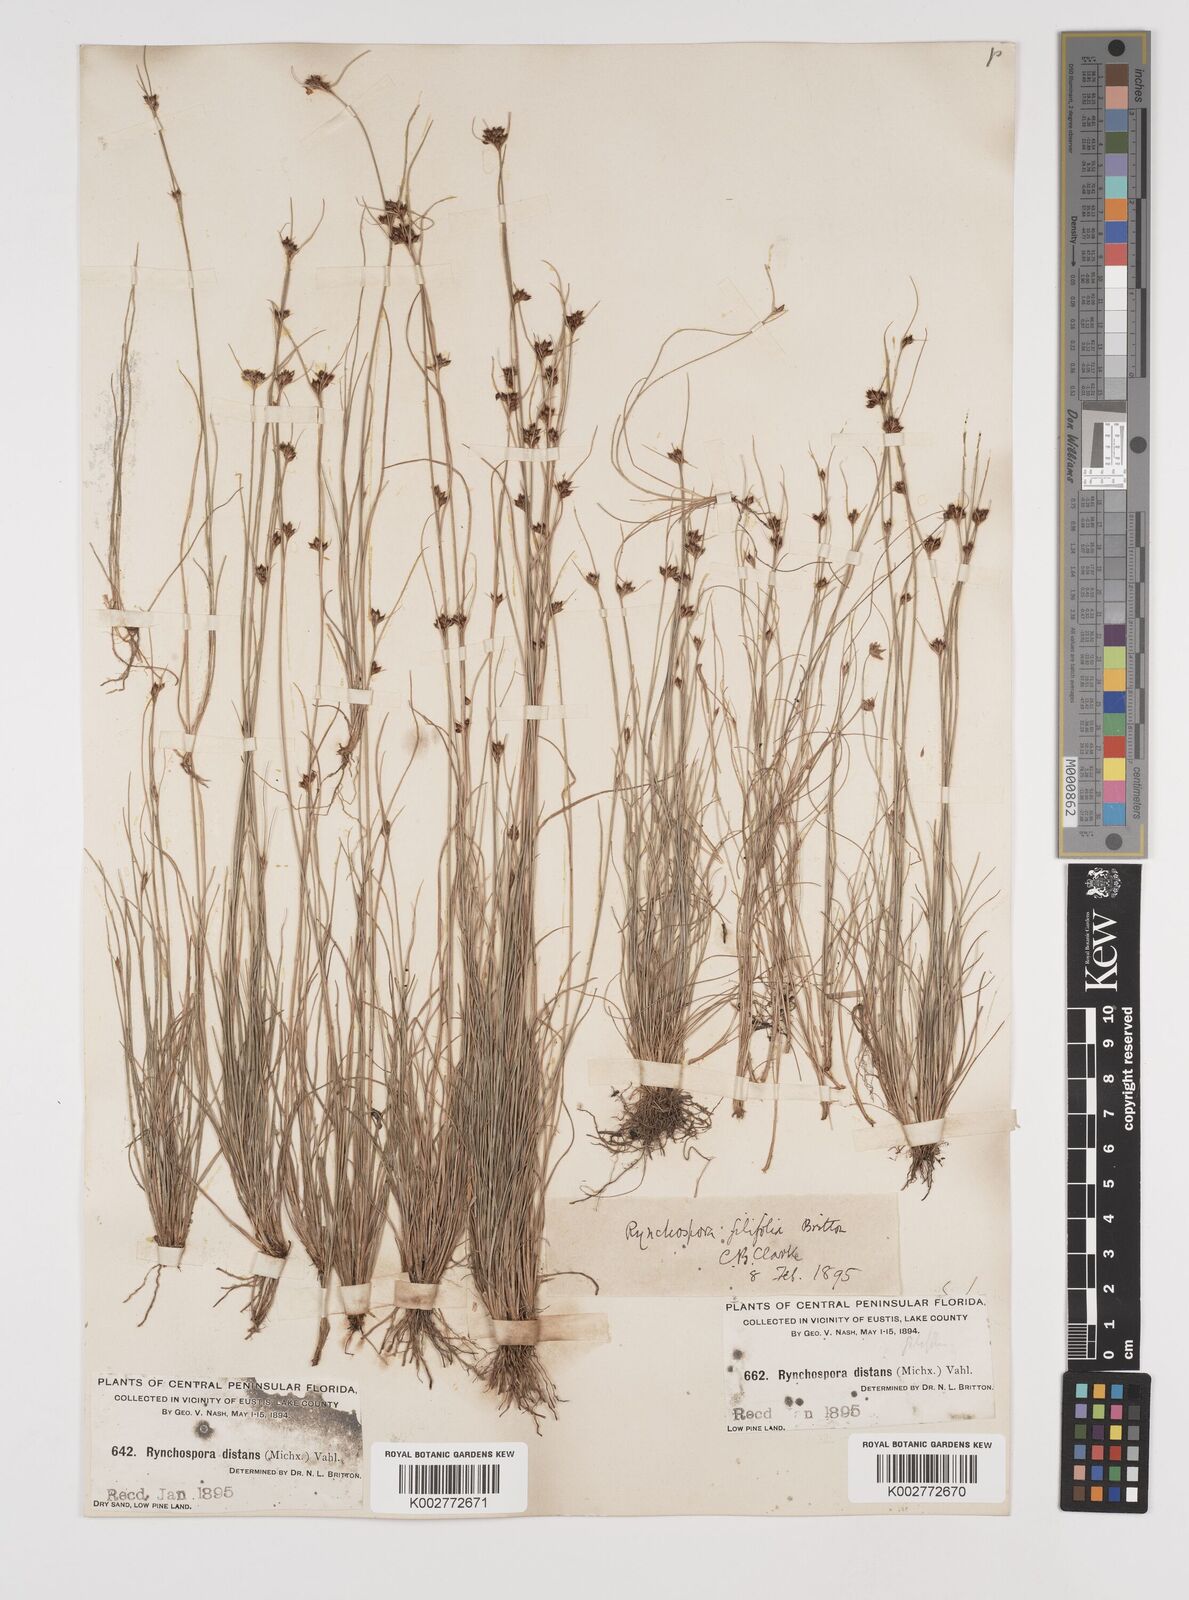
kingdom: Plantae
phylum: Tracheophyta
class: Liliopsida
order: Poales
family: Cyperaceae
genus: Rhynchospora
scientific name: Rhynchospora filifolia
